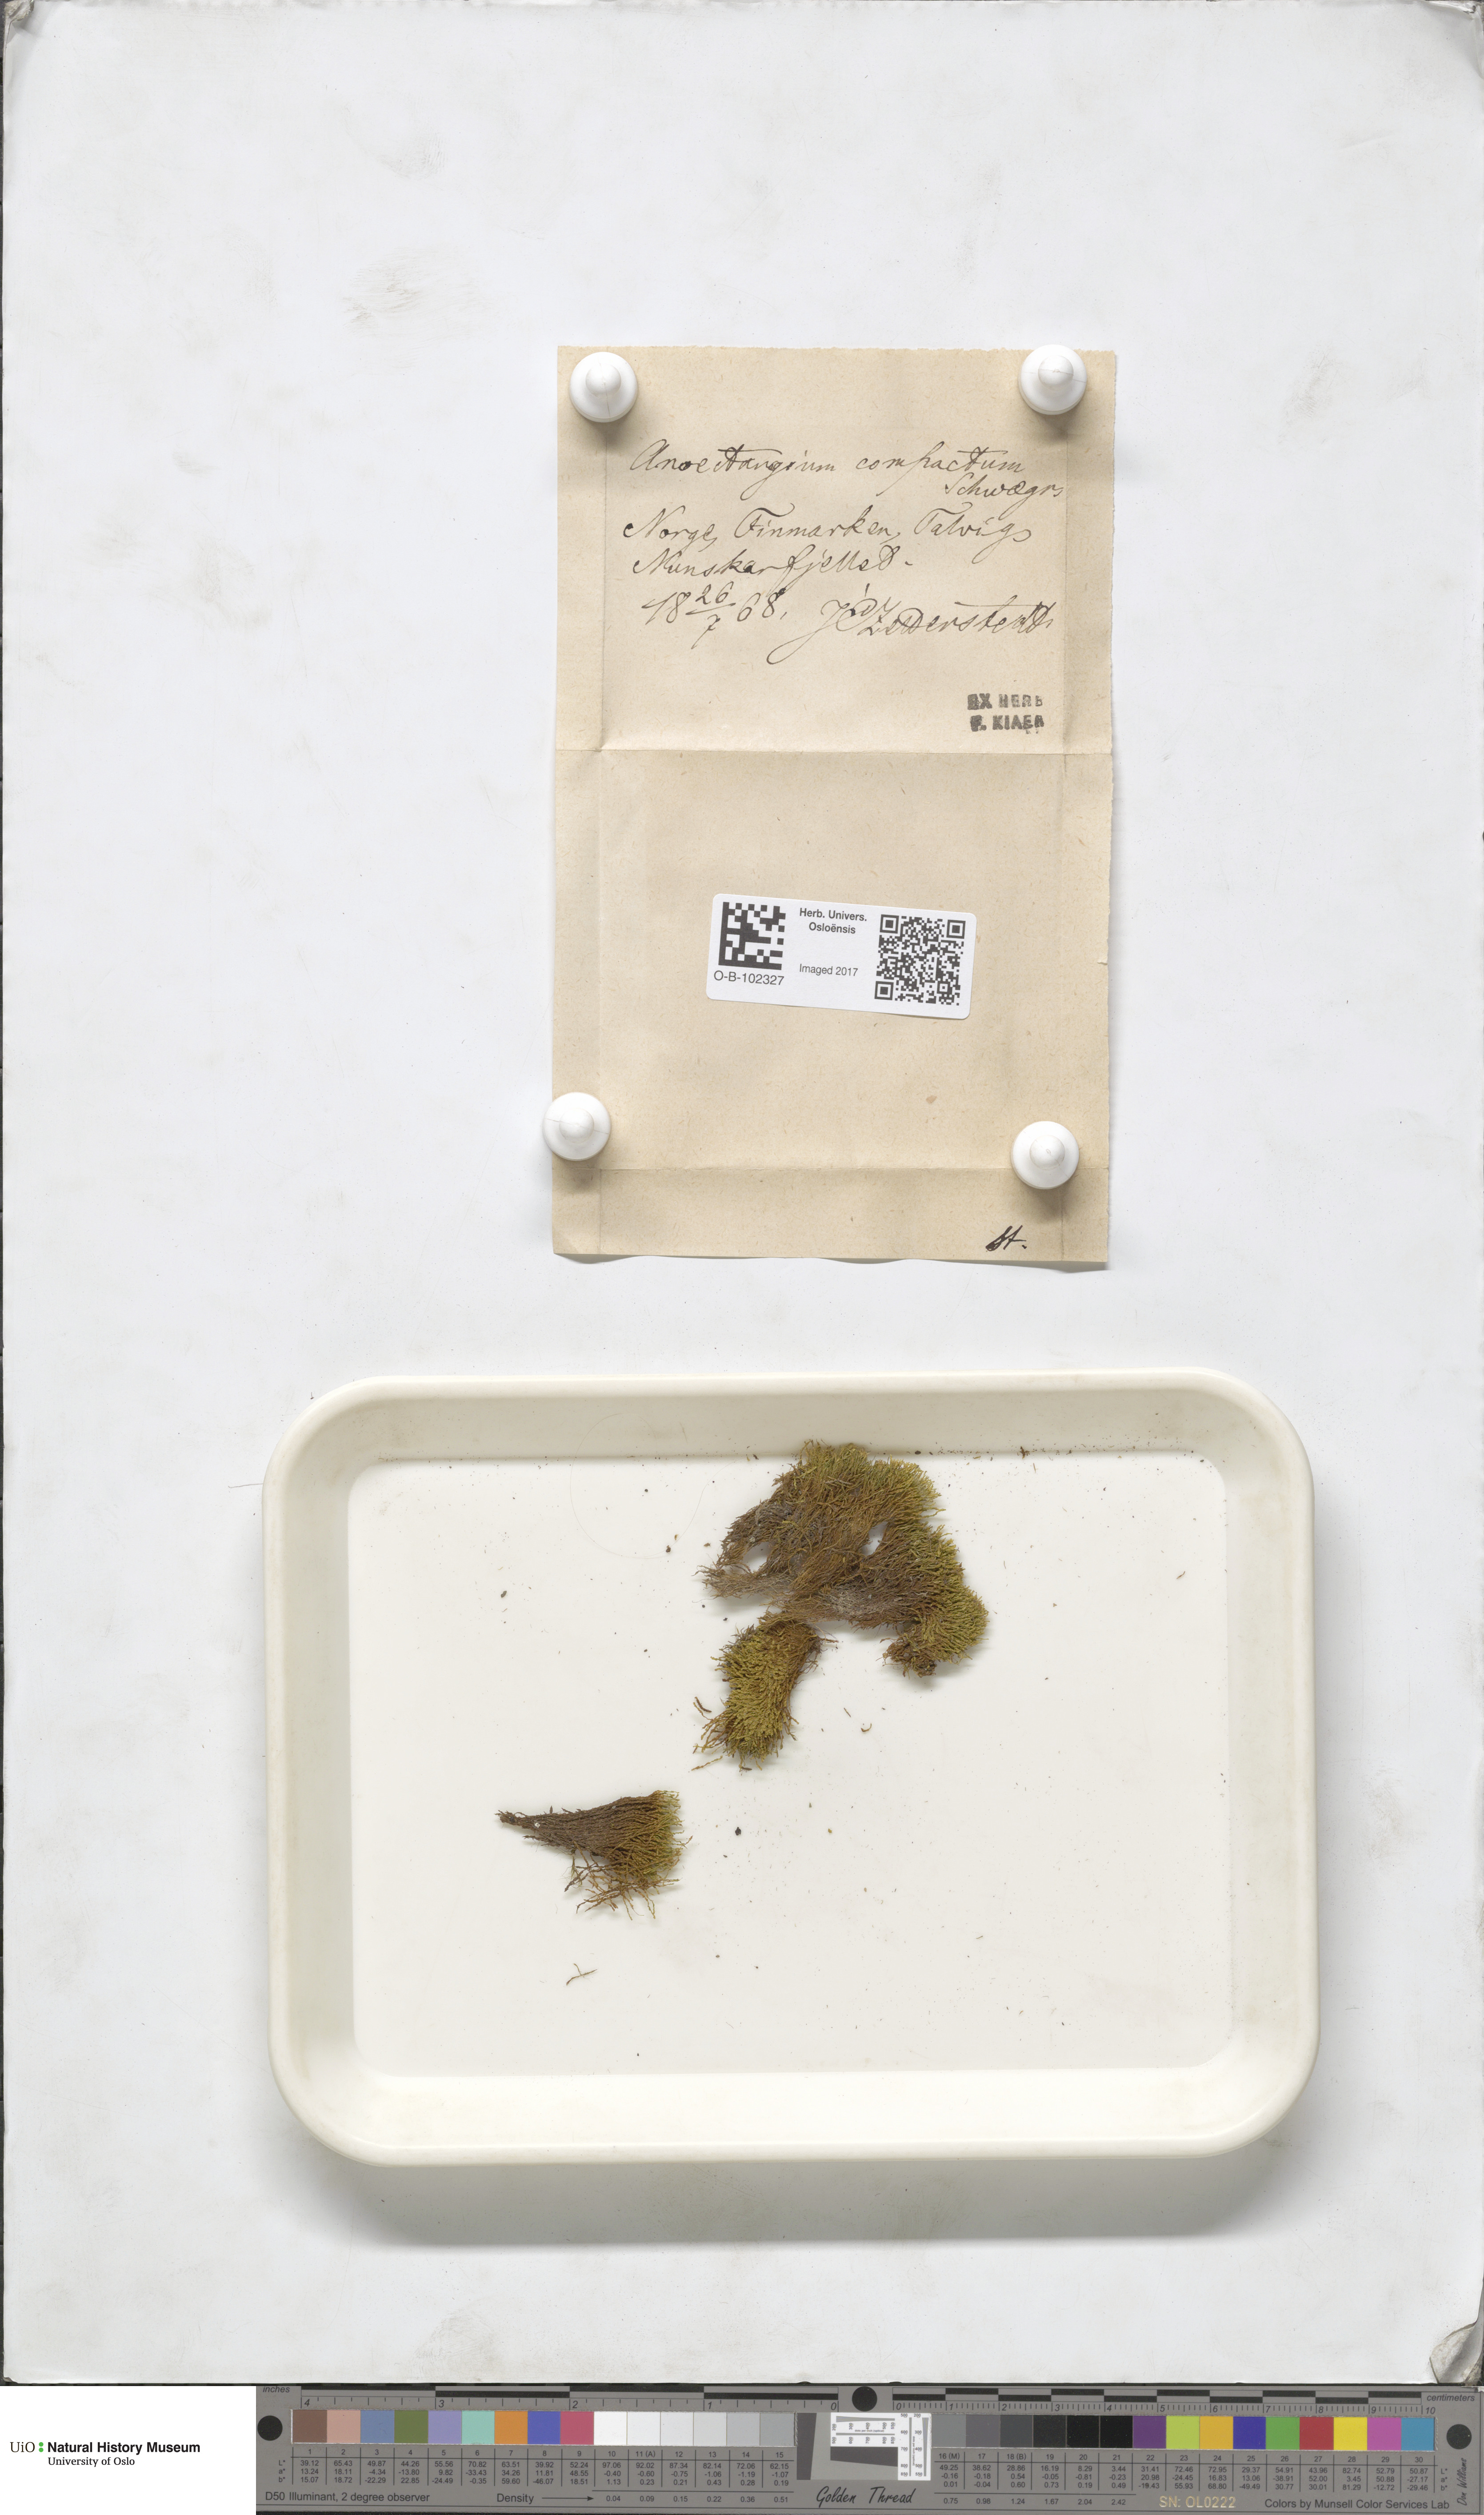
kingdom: Plantae
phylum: Bryophyta
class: Bryopsida
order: Pottiales
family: Pottiaceae
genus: Anoectangium
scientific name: Anoectangium aestivum
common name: Summer-moss
